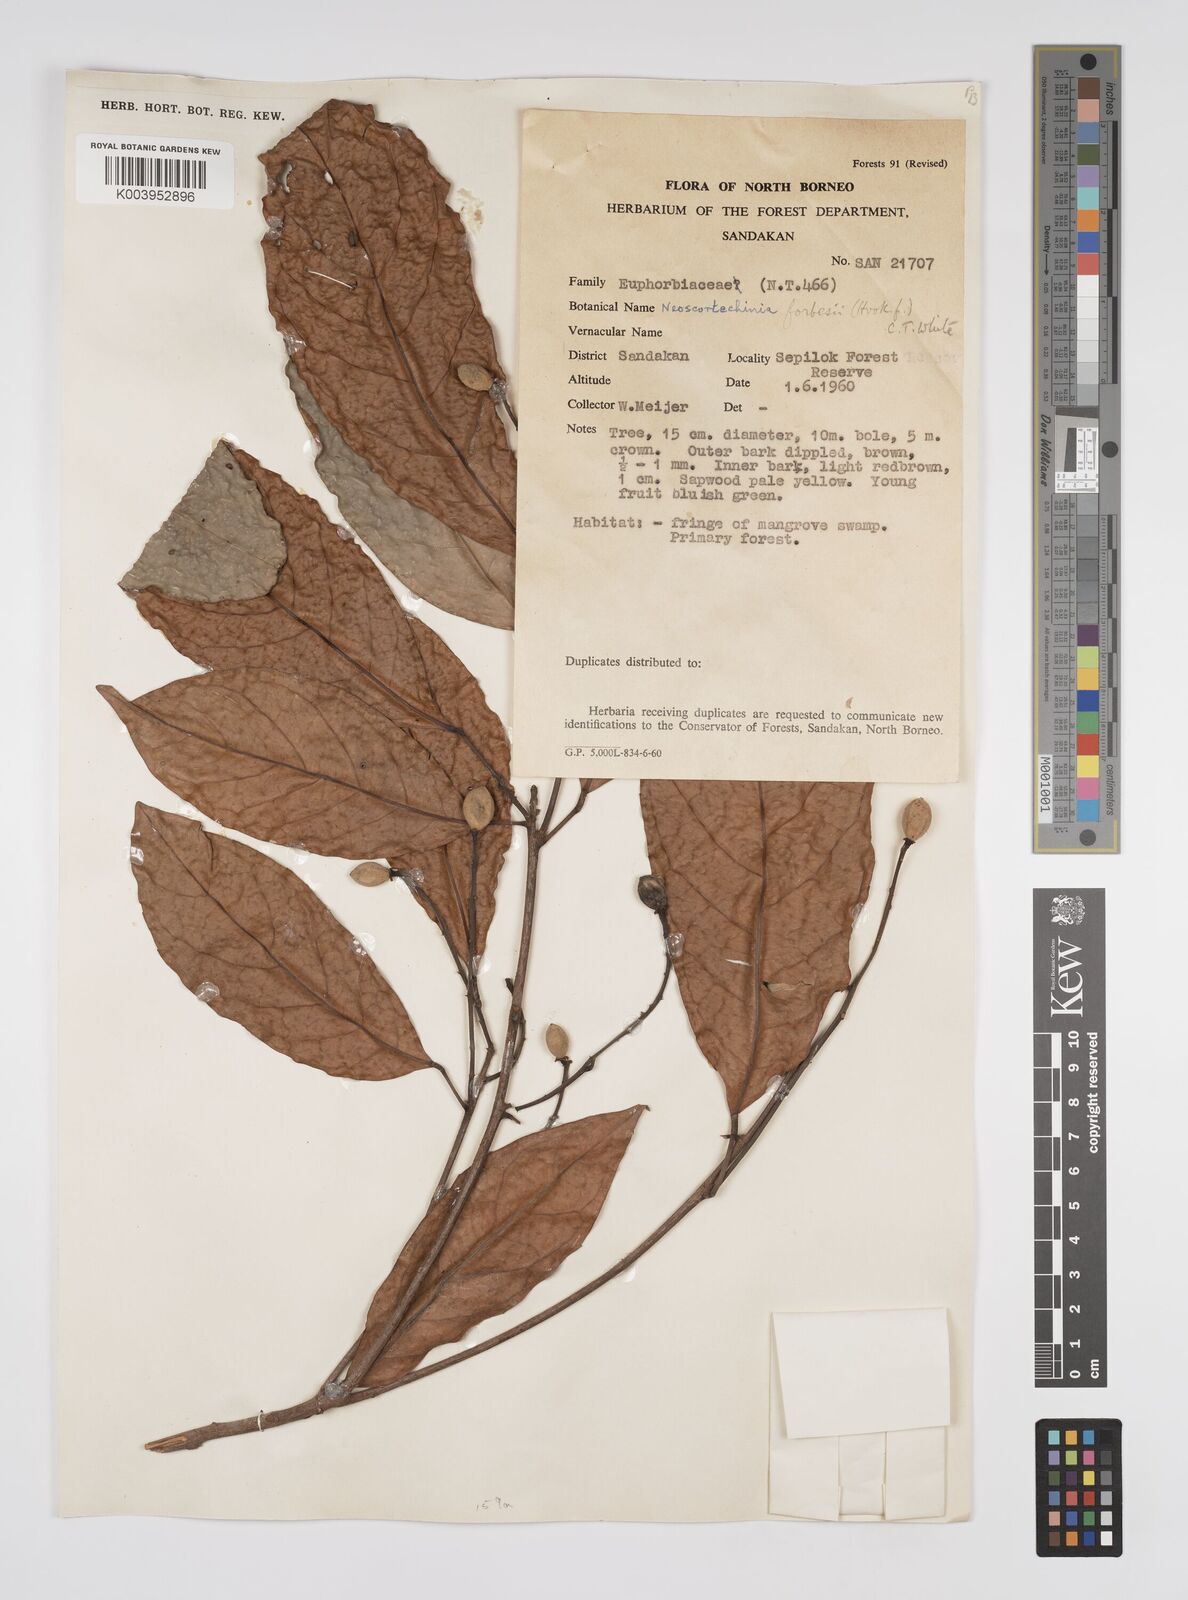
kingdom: Plantae
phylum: Tracheophyta
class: Magnoliopsida
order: Malpighiales
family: Euphorbiaceae
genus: Neoscortechinia
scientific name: Neoscortechinia philippinensis
